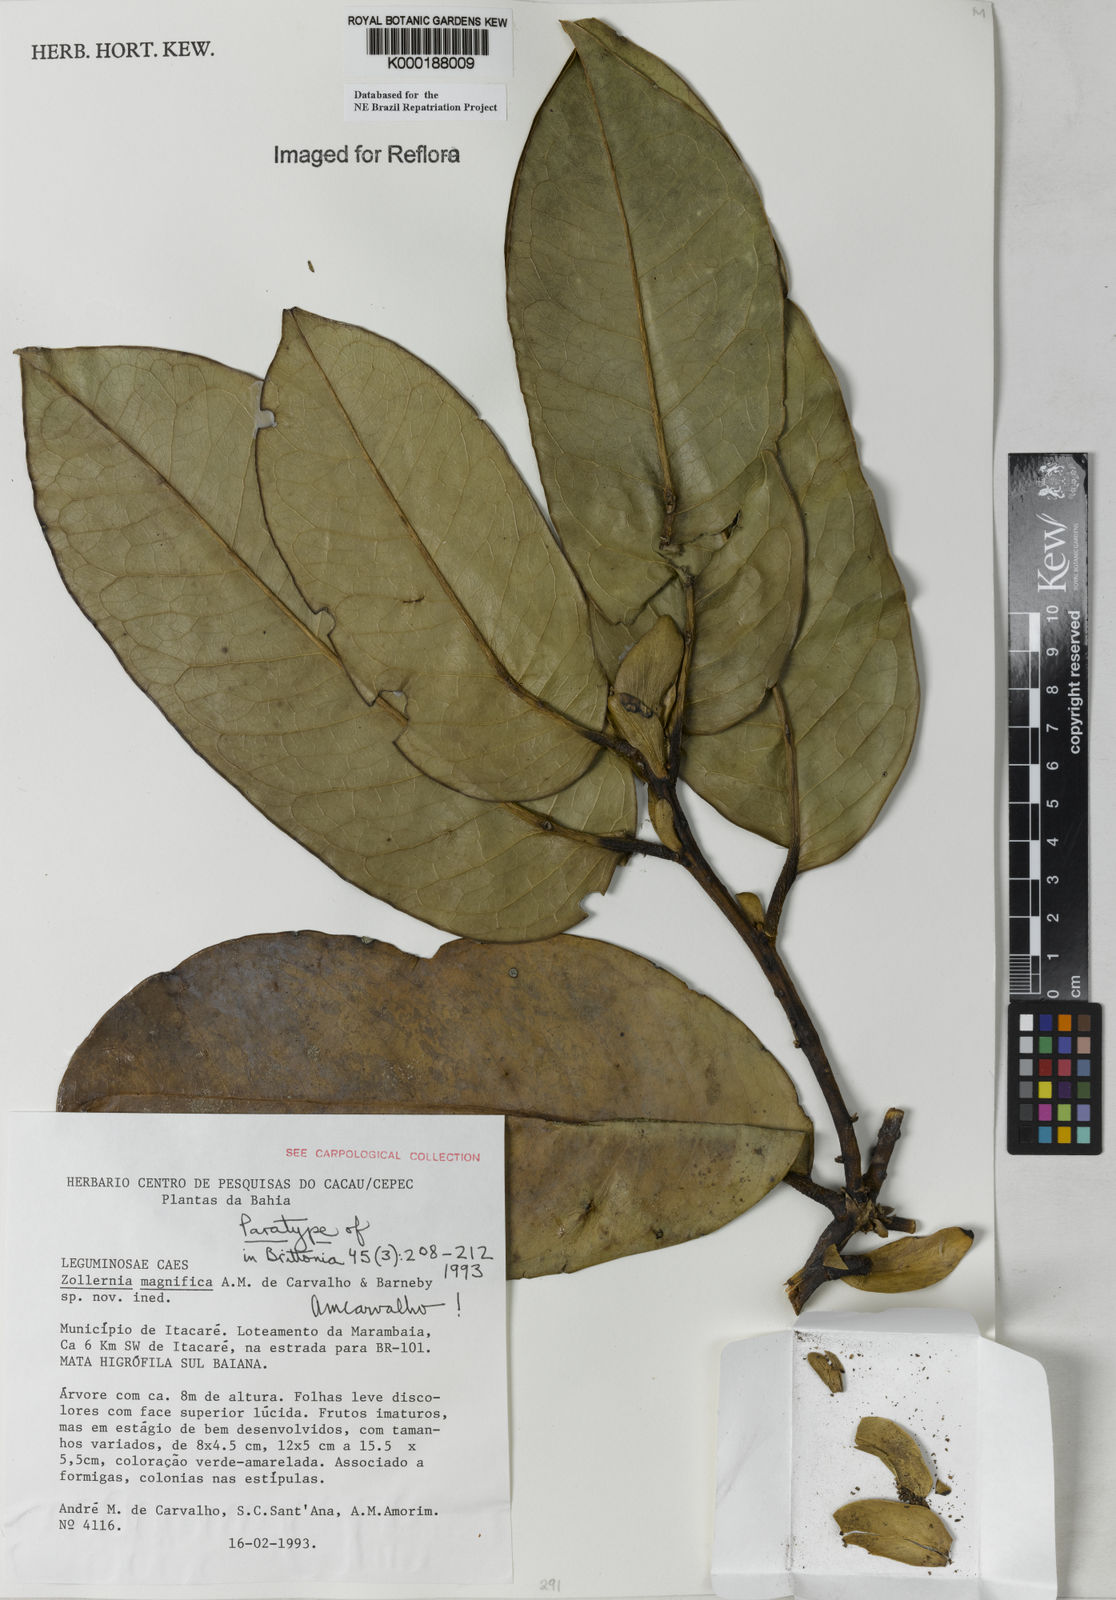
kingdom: Plantae
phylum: Tracheophyta
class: Magnoliopsida
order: Fabales
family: Fabaceae
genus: Zollernia
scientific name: Zollernia magnifica
